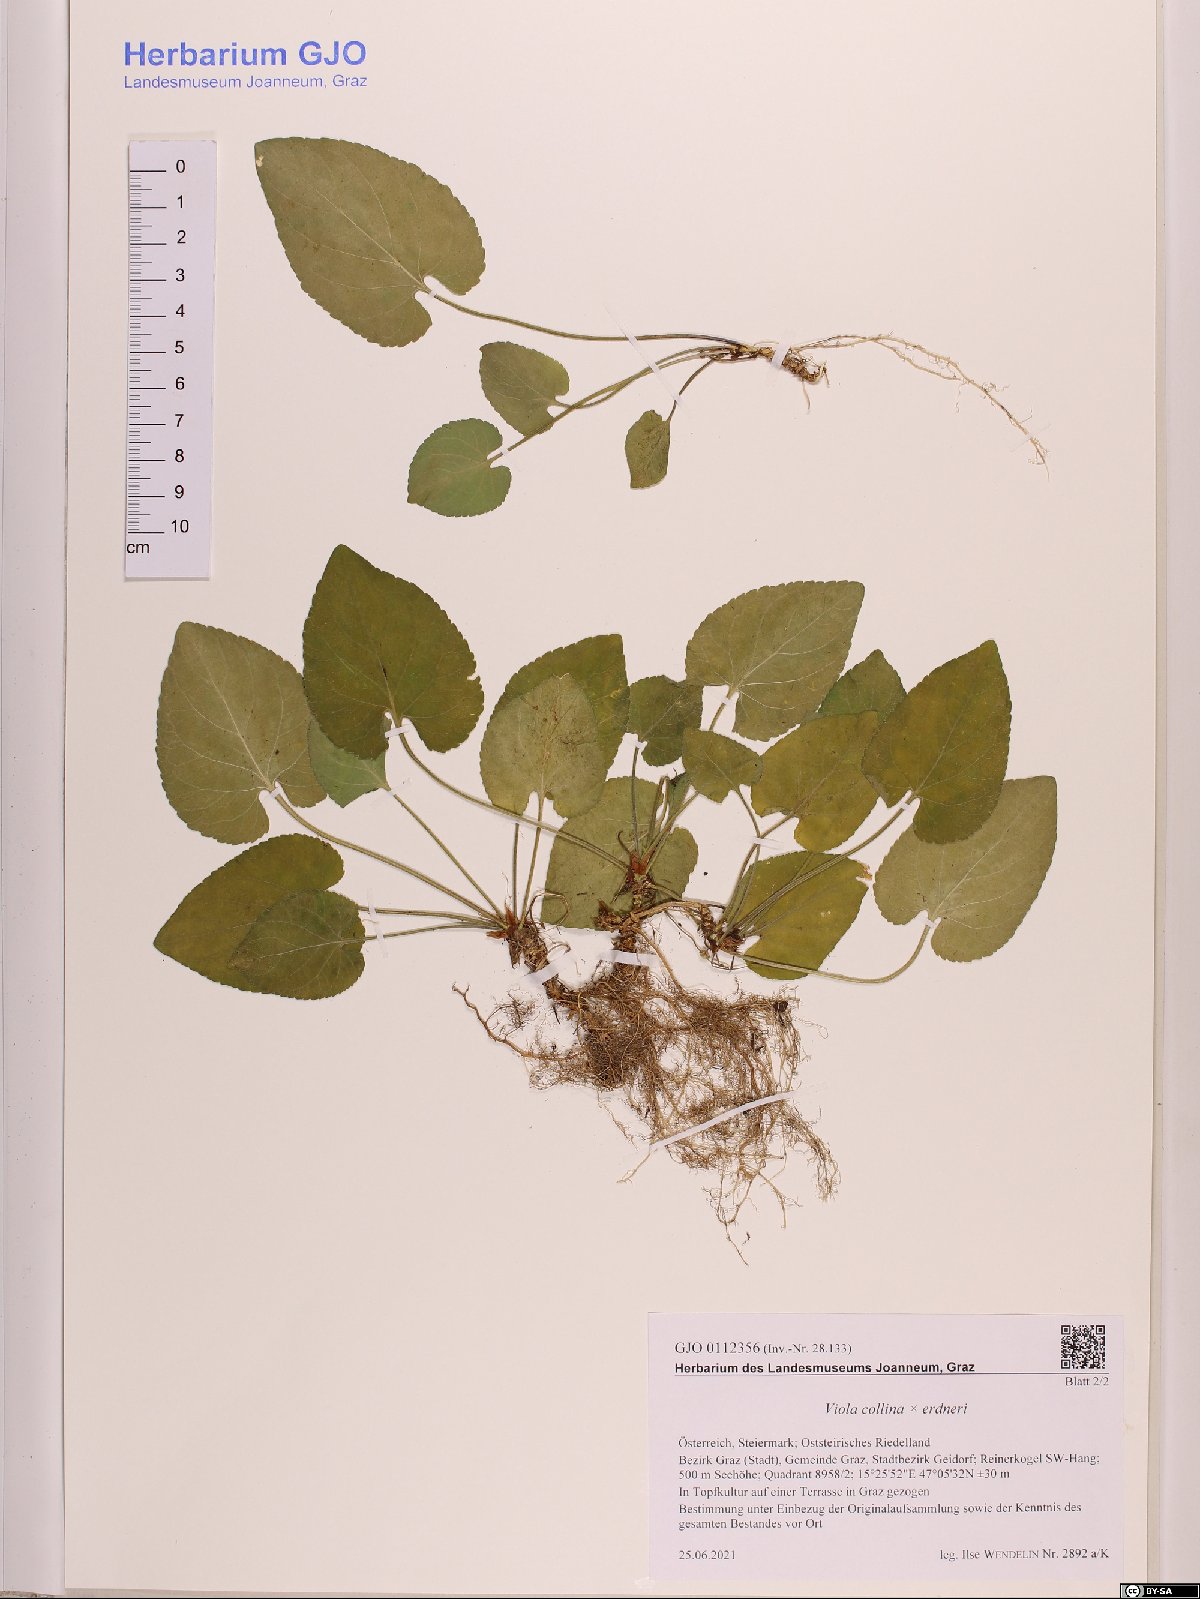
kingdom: Plantae
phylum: Tracheophyta
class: Magnoliopsida
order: Malpighiales
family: Violaceae
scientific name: Violaceae
